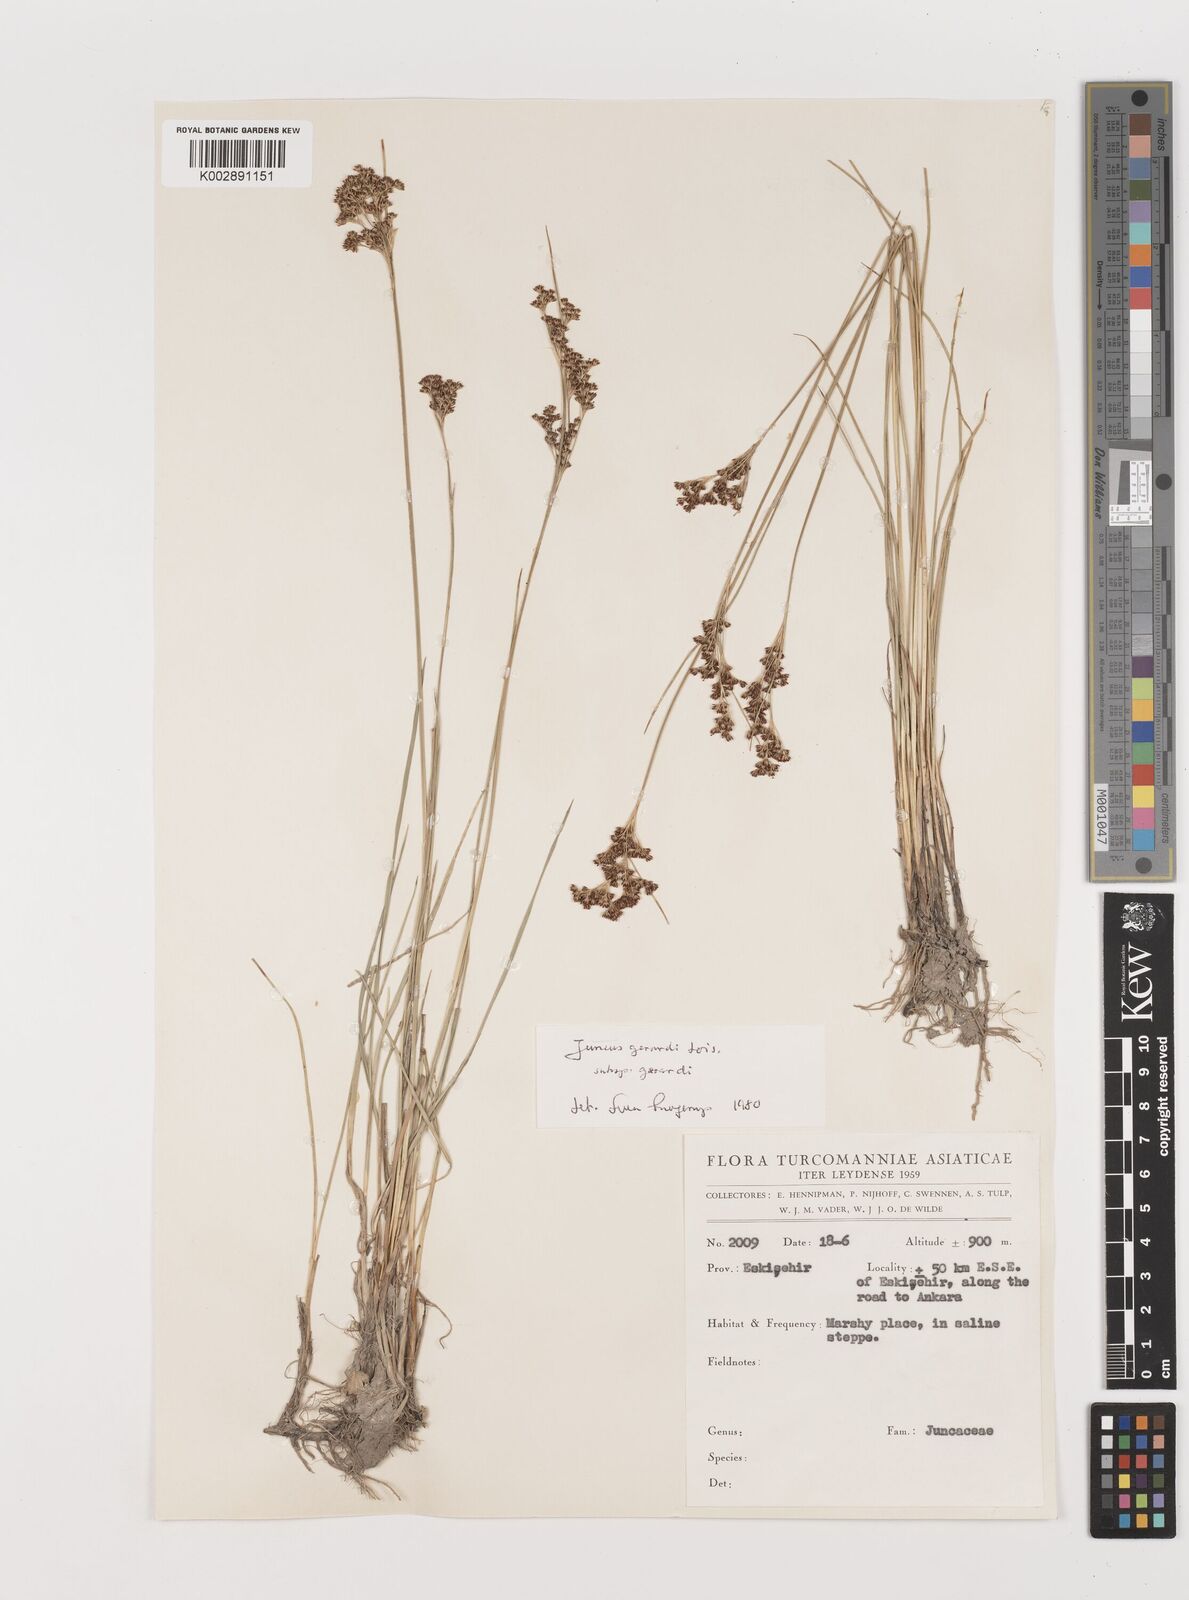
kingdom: Plantae
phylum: Tracheophyta
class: Liliopsida
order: Poales
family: Juncaceae
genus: Juncus
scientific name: Juncus gerardi
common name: Saltmarsh rush
